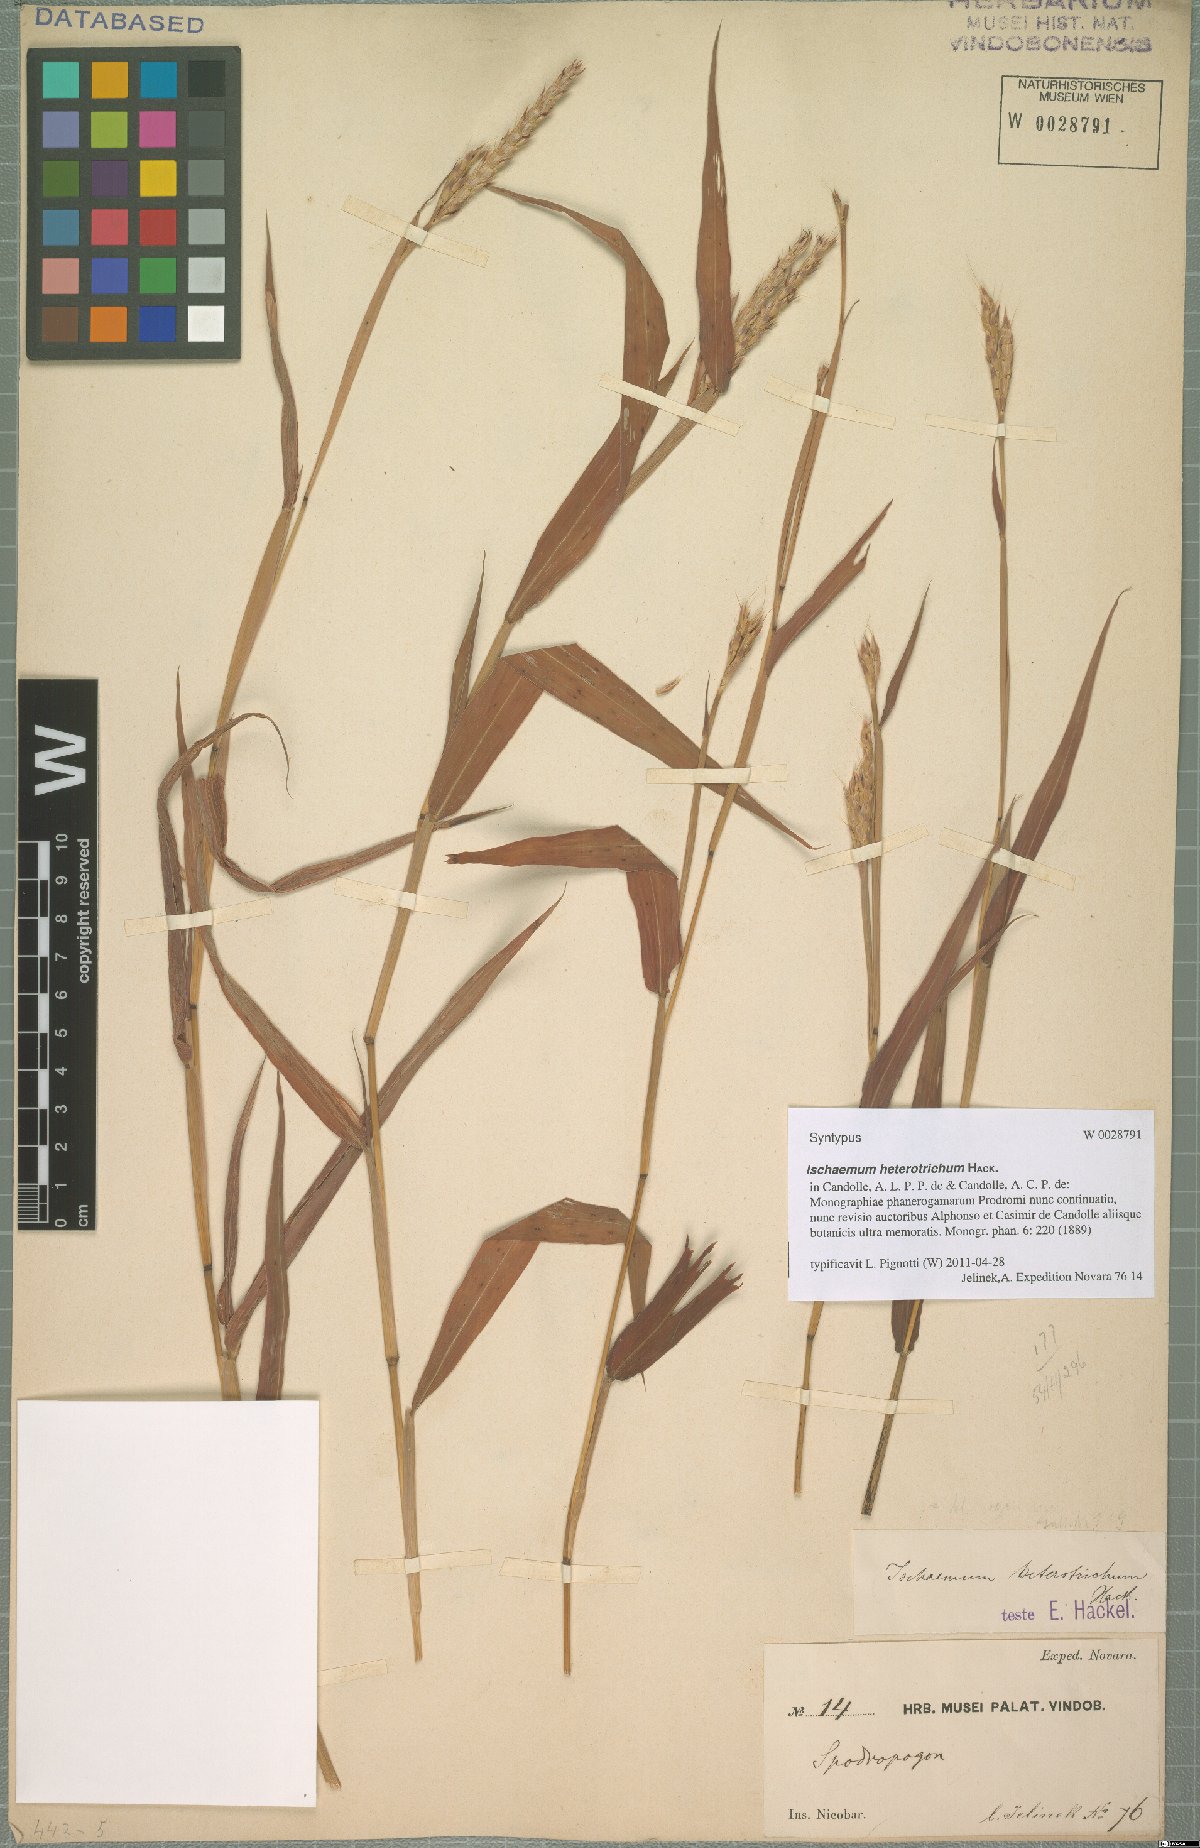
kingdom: Plantae
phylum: Tracheophyta
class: Liliopsida
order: Poales
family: Poaceae
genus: Ischaemum
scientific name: Ischaemum heterotrichum
